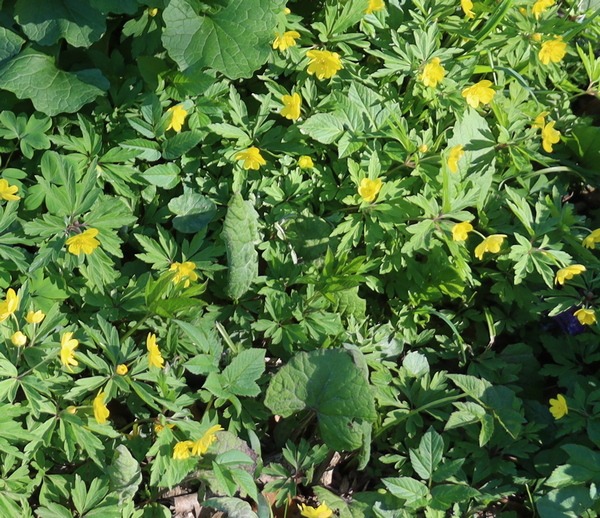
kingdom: Plantae
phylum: Tracheophyta
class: Magnoliopsida
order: Ranunculales
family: Ranunculaceae
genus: Anemone
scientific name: Anemone ranunculoides
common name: Gul anemone
